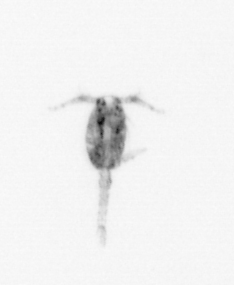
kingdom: Animalia
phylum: Arthropoda
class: Copepoda
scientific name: Copepoda
